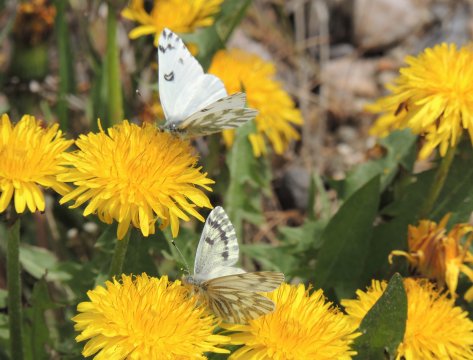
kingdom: Animalia
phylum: Arthropoda
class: Insecta
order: Lepidoptera
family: Pieridae
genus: Pontia
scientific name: Pontia sisymbrii
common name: Spring White
